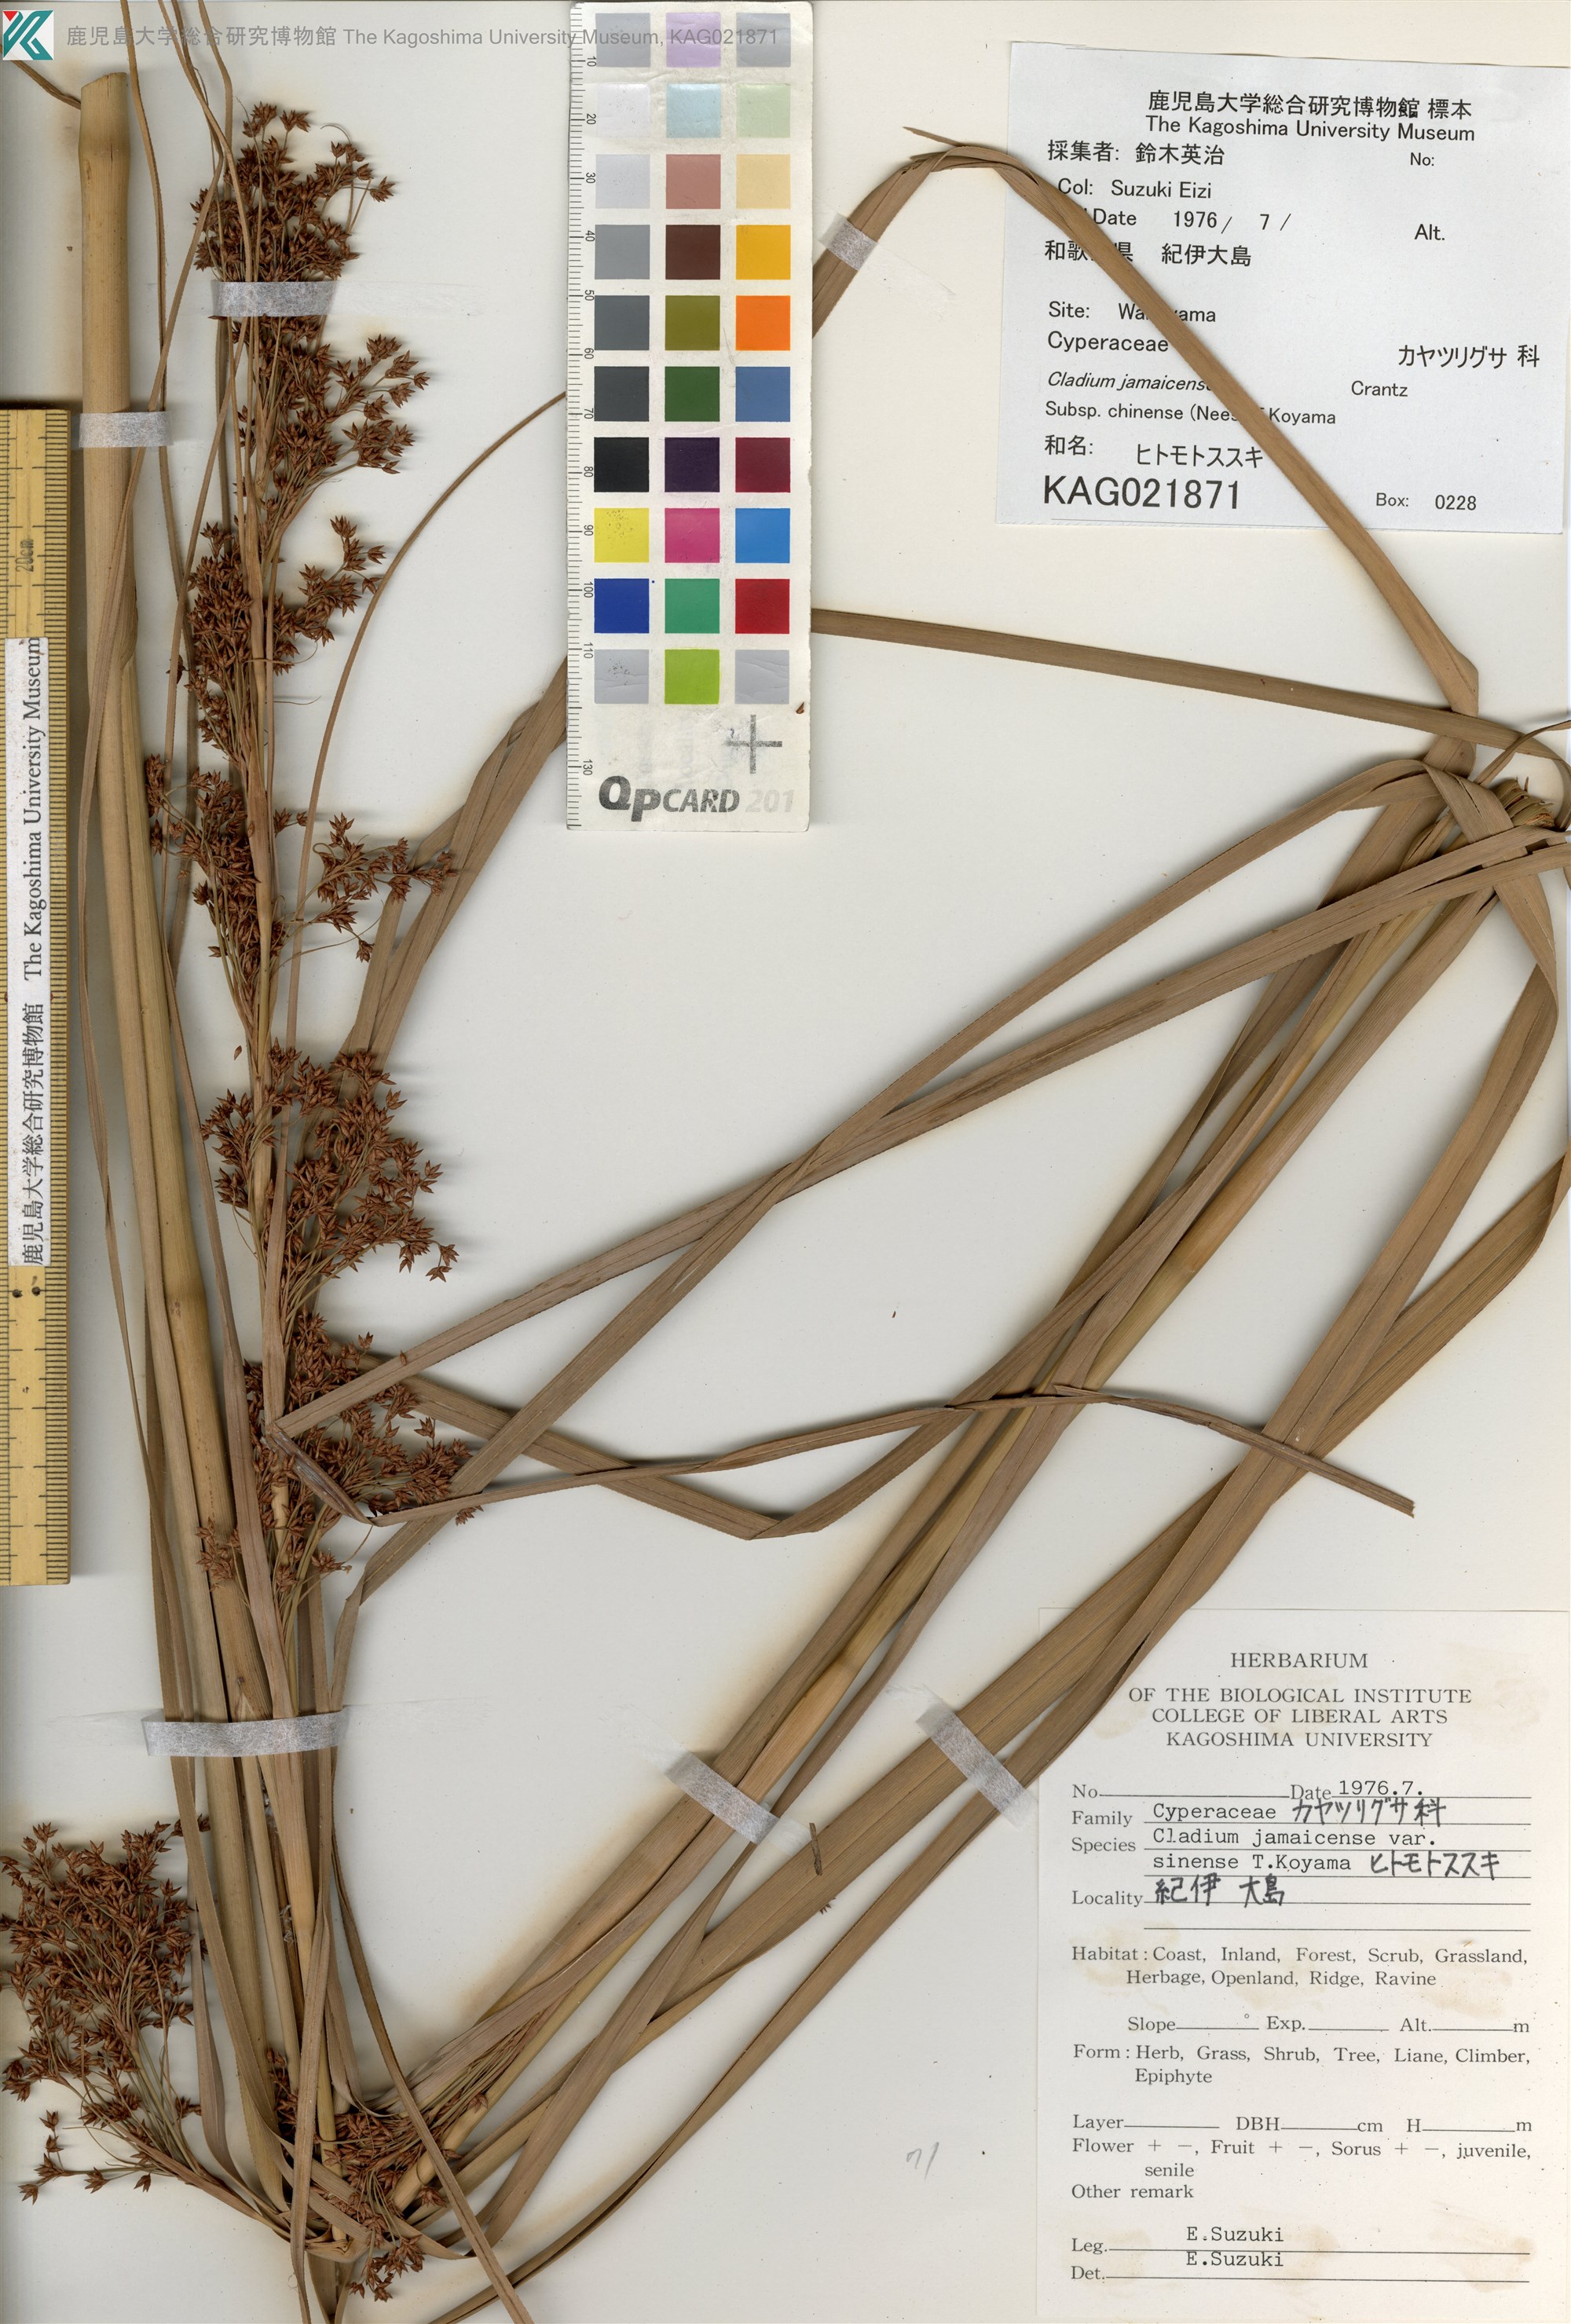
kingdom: Plantae
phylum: Tracheophyta
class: Liliopsida
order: Poales
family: Cyperaceae
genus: Cladium
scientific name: Cladium mariscus
